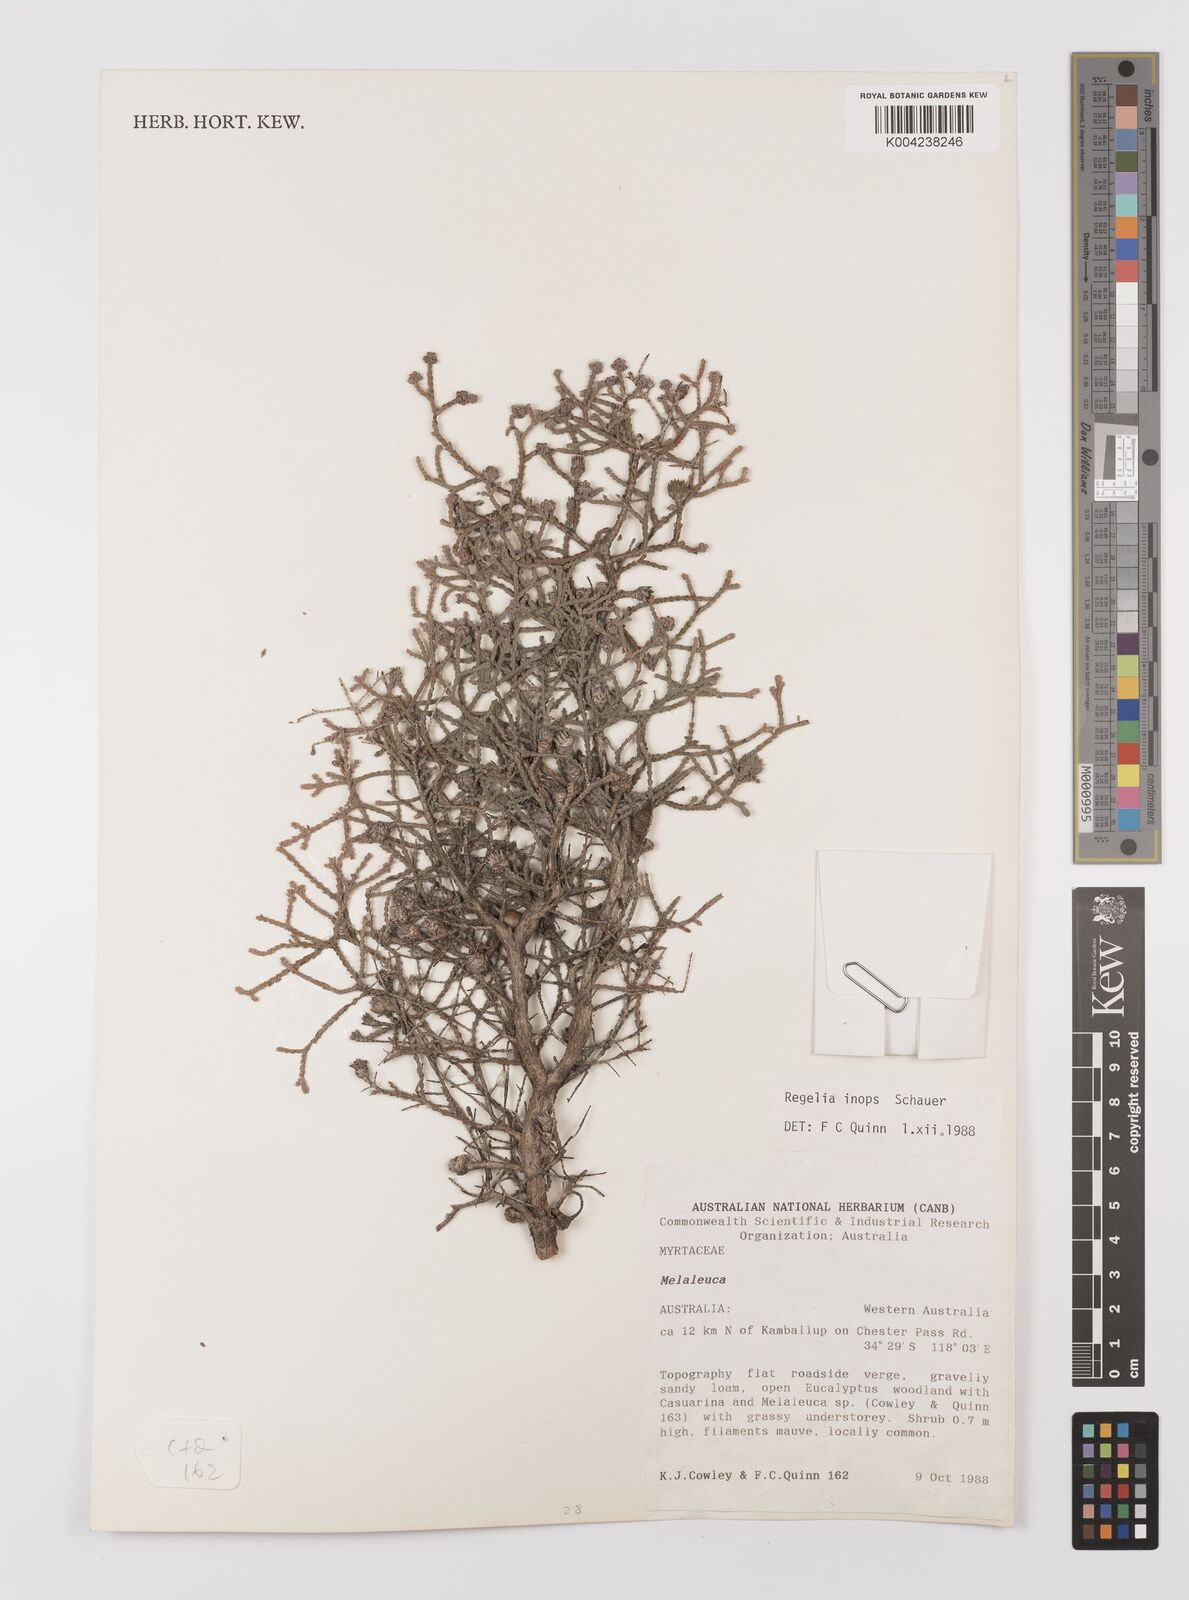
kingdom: Plantae
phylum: Tracheophyta
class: Magnoliopsida
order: Myrtales
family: Myrtaceae
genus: Melaleuca
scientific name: Melaleuca inops
